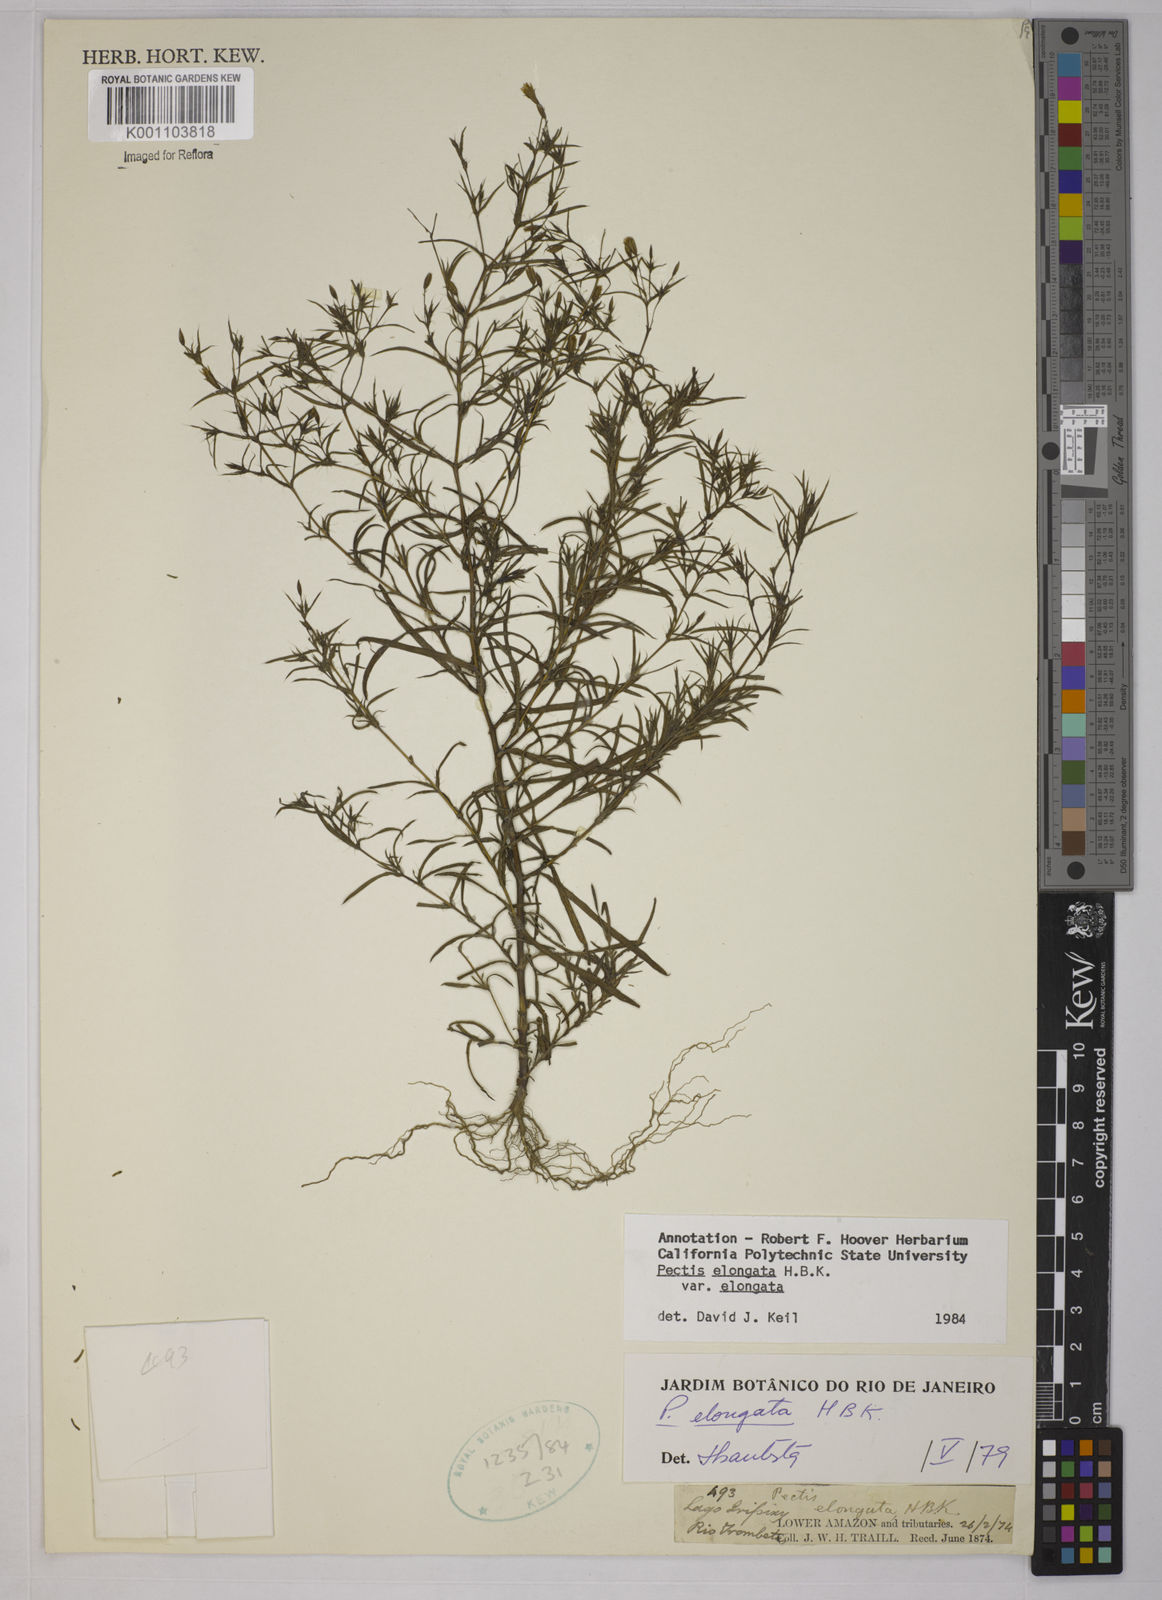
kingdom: Plantae
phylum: Tracheophyta
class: Magnoliopsida
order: Asterales
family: Asteraceae
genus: Pectis
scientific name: Pectis elongata
